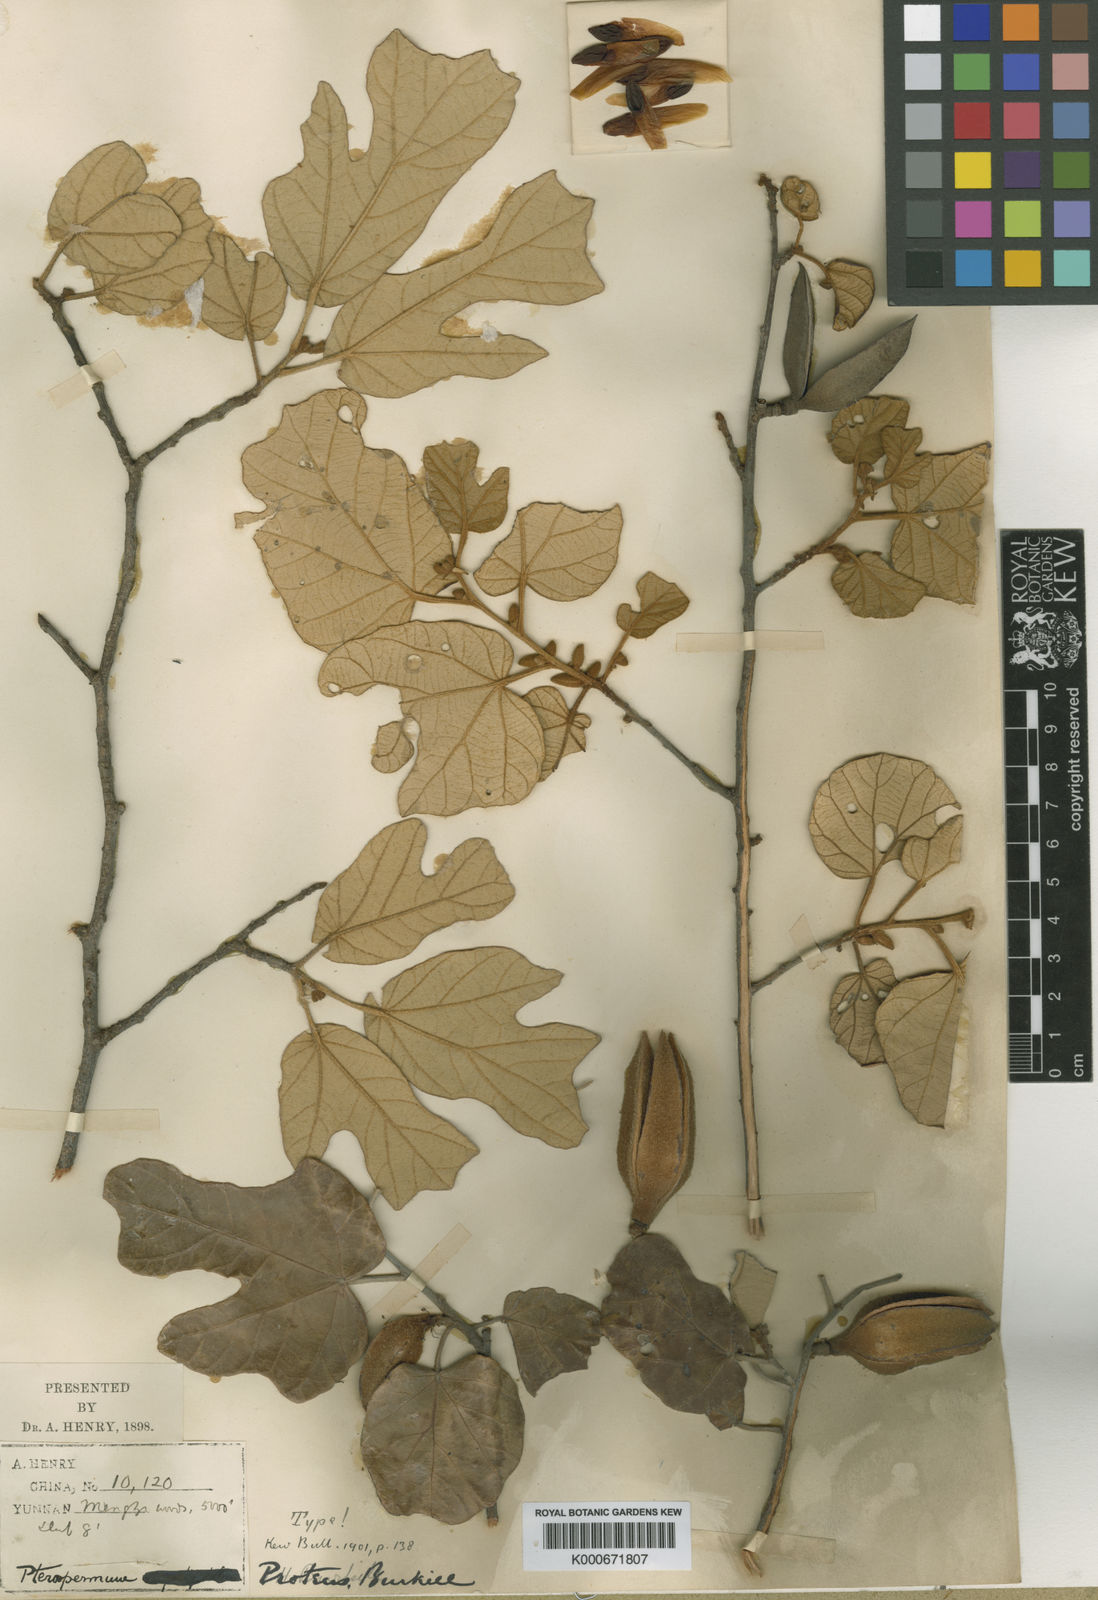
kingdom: Plantae
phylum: Tracheophyta
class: Magnoliopsida
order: Malvales
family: Malvaceae
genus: Pterospermum
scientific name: Pterospermum proteus
